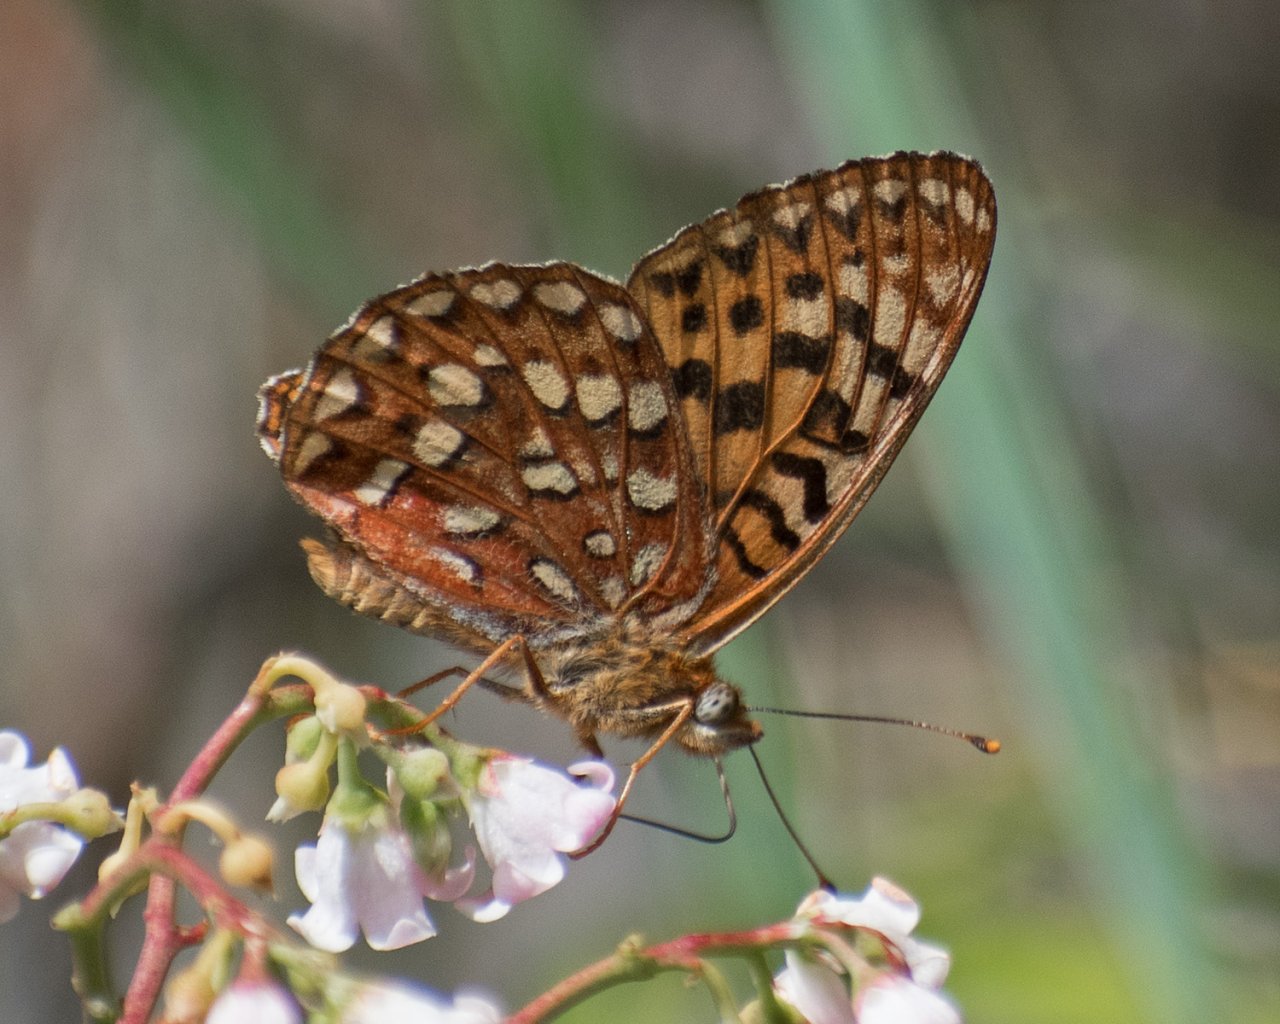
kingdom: Animalia
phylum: Arthropoda
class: Insecta
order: Lepidoptera
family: Nymphalidae
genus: Speyeria
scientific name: Speyeria hydaspe
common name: Hydaspe Fritillary
